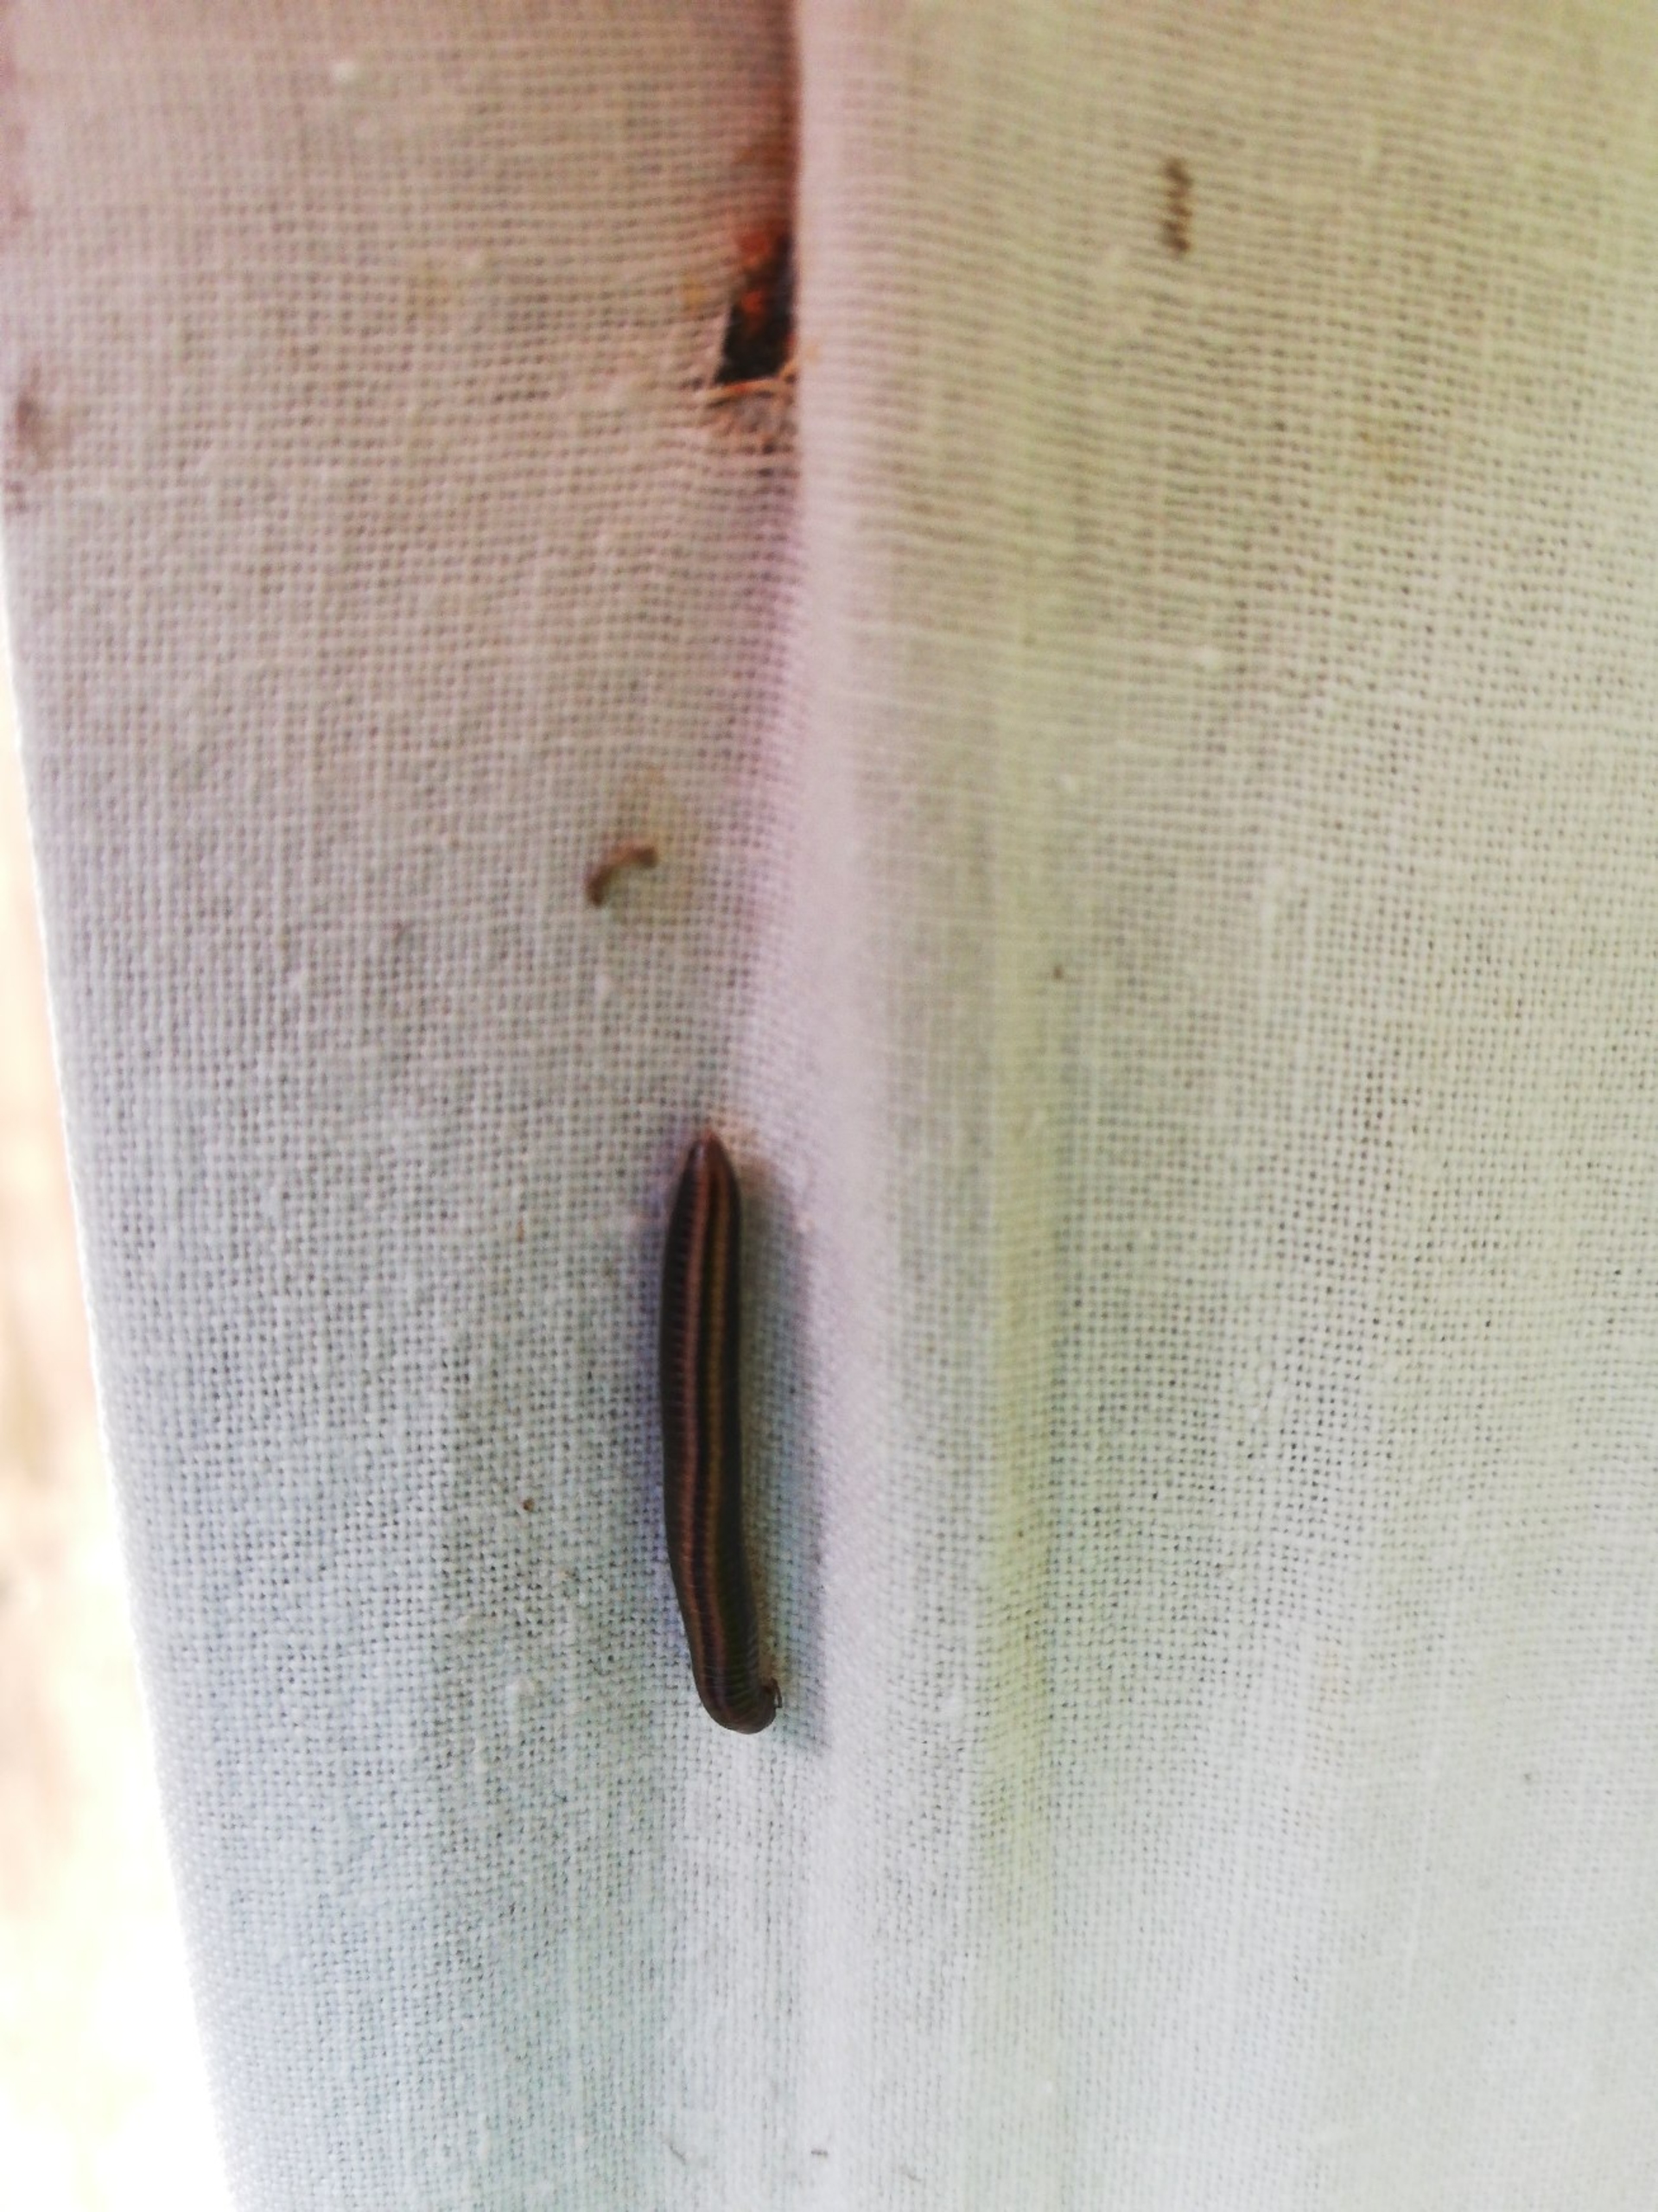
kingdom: Animalia
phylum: Arthropoda
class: Diplopoda
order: Julida
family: Julidae
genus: Ommatoiulus
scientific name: Ommatoiulus sabulosus
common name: Stor bånd-tusindben
